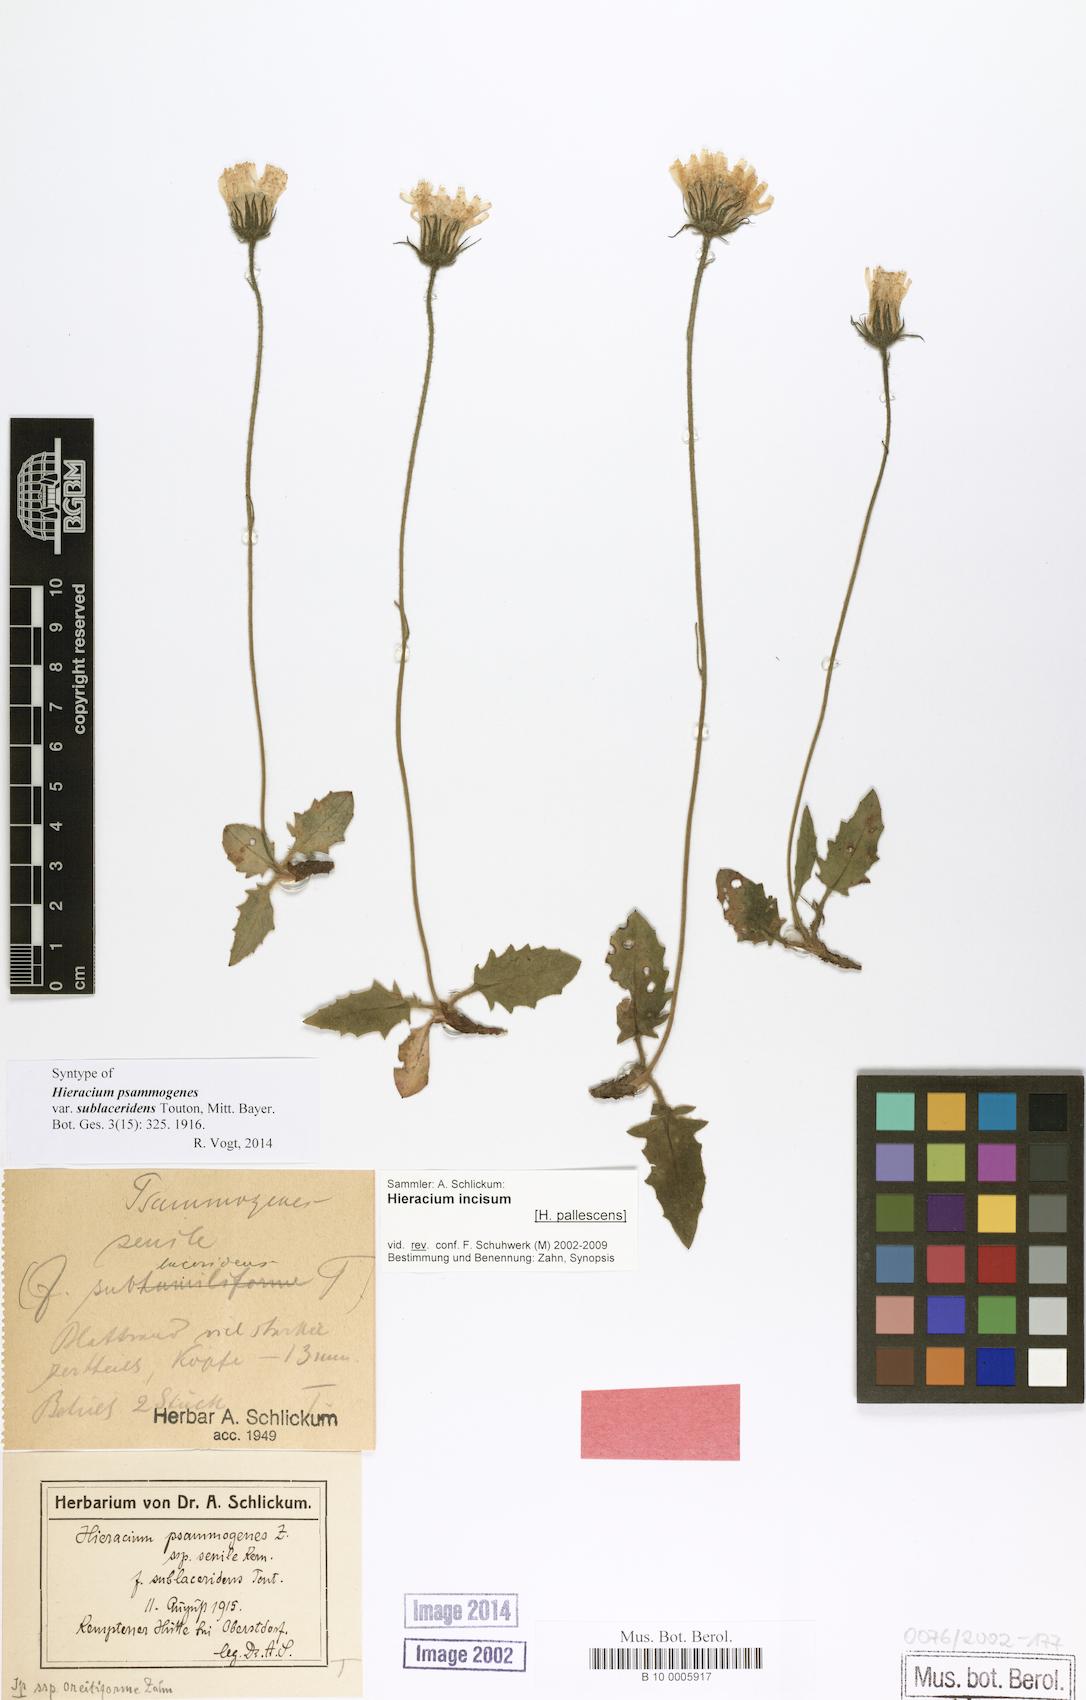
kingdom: Plantae
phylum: Tracheophyta
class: Magnoliopsida
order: Asterales
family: Asteraceae
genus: Hieracium
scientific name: Hieracium psammogenes
